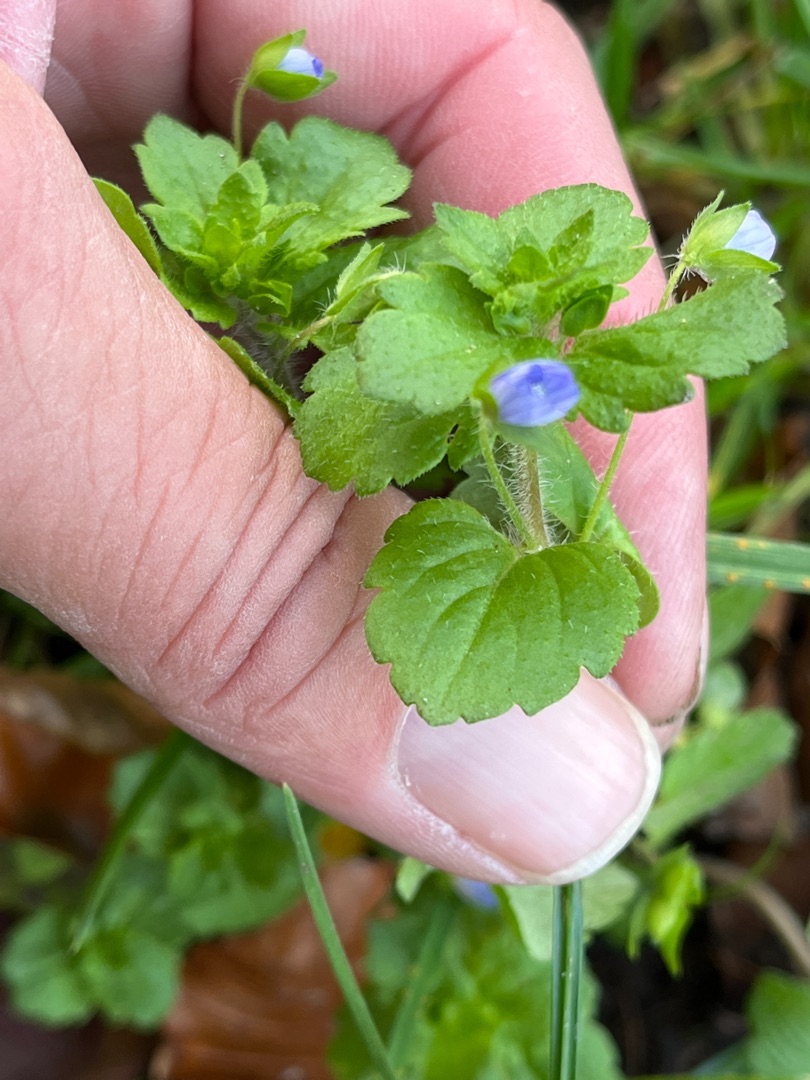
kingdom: Plantae
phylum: Tracheophyta
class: Magnoliopsida
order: Lamiales
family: Plantaginaceae
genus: Veronica
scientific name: Veronica persica
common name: Storkronet ærenpris
